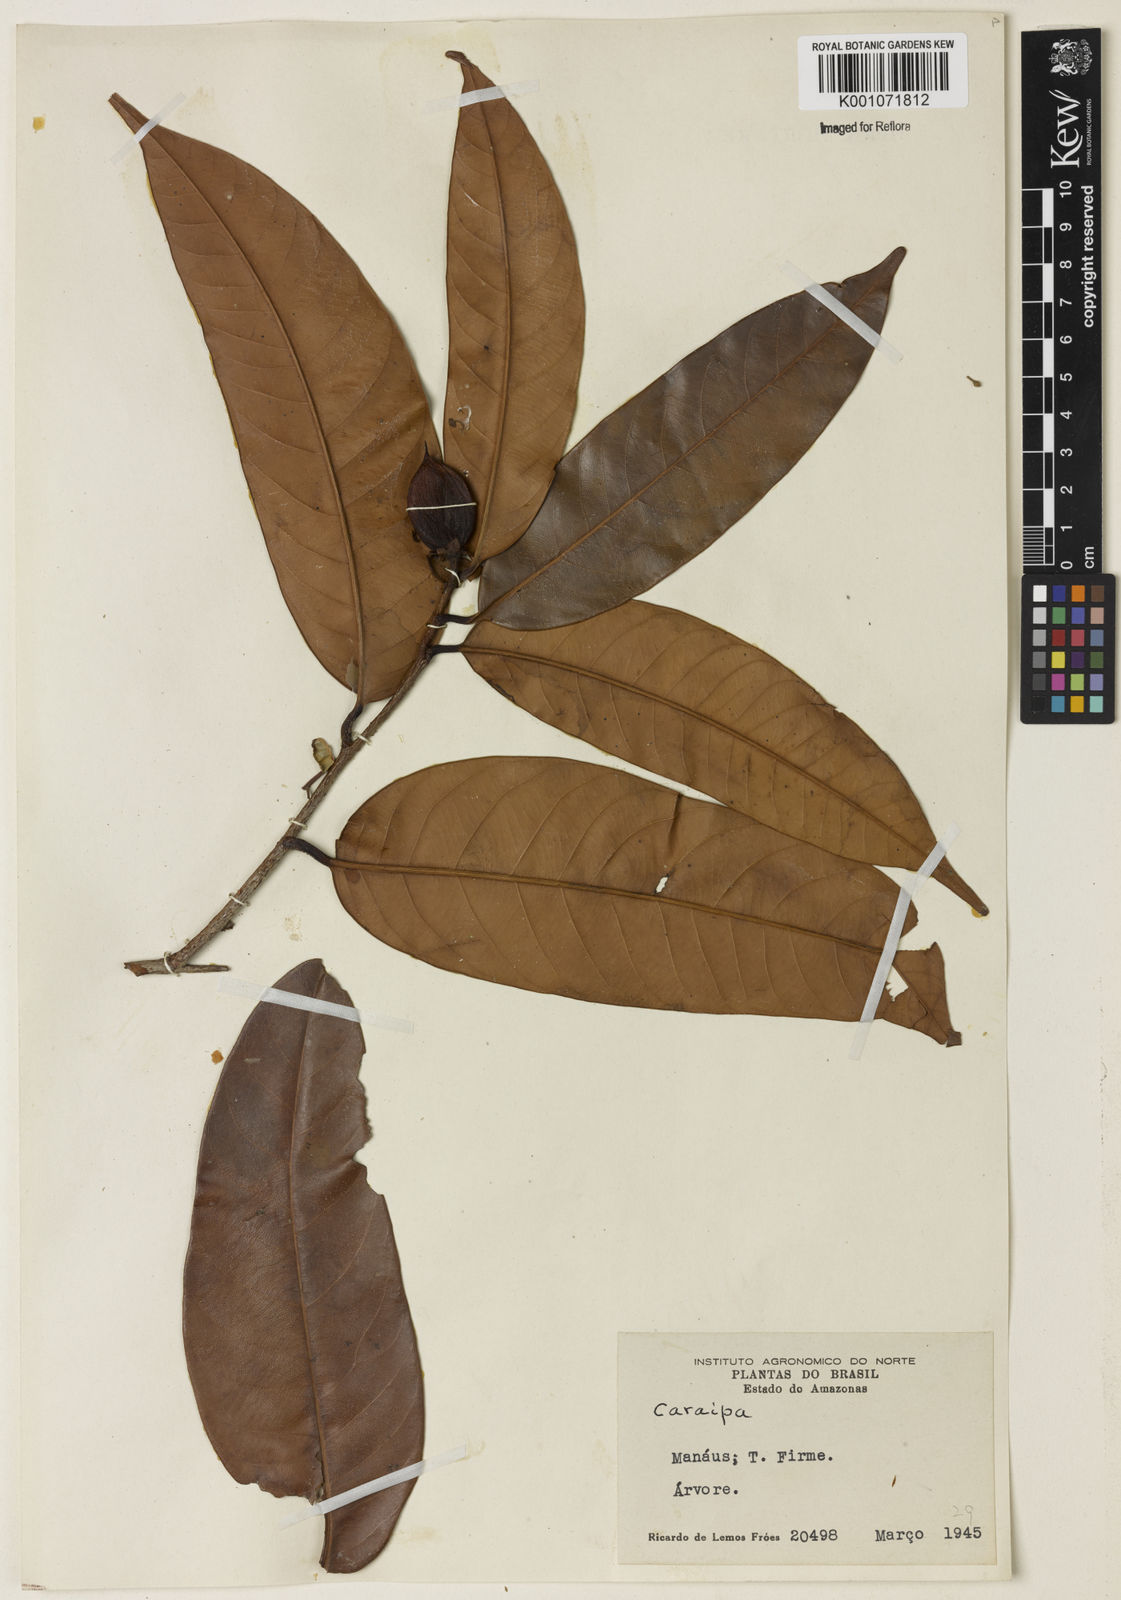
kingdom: Plantae
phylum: Tracheophyta
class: Magnoliopsida
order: Malpighiales
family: Calophyllaceae
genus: Caraipa
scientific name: Caraipa
